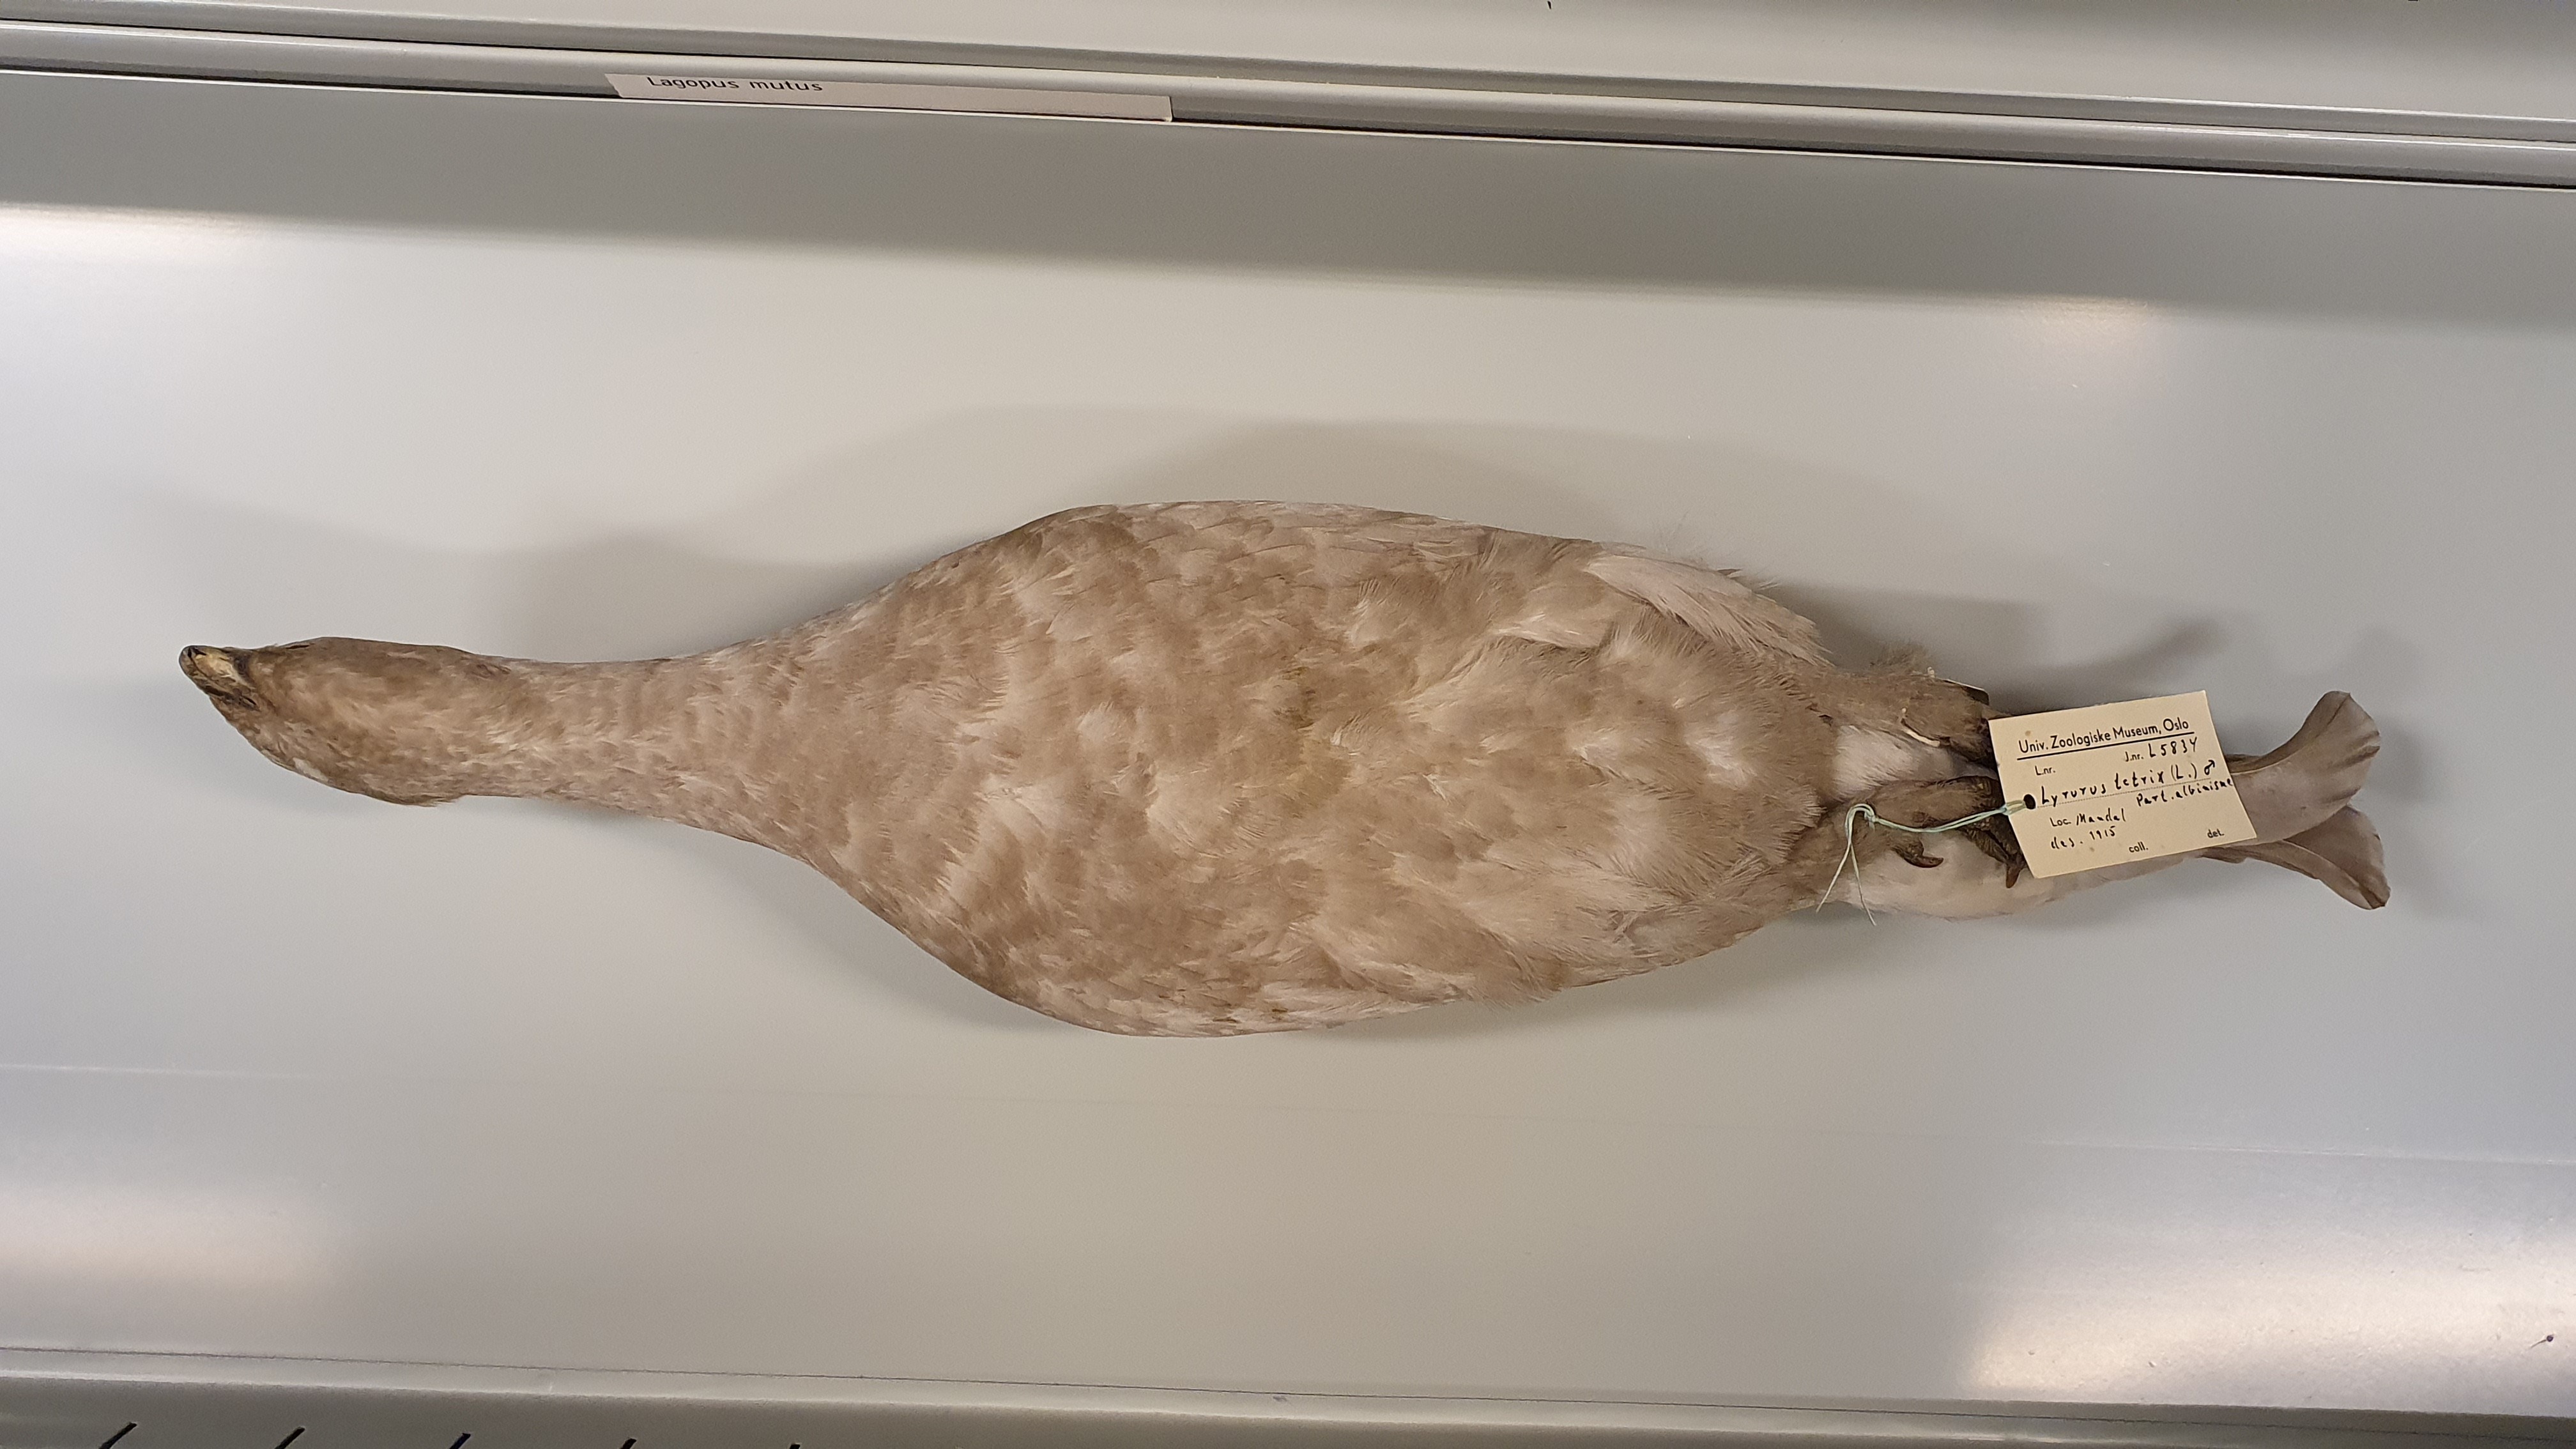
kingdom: Animalia
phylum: Chordata
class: Aves
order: Galliformes
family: Phasianidae
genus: Lyrurus
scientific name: Lyrurus tetrix
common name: Black grouse
